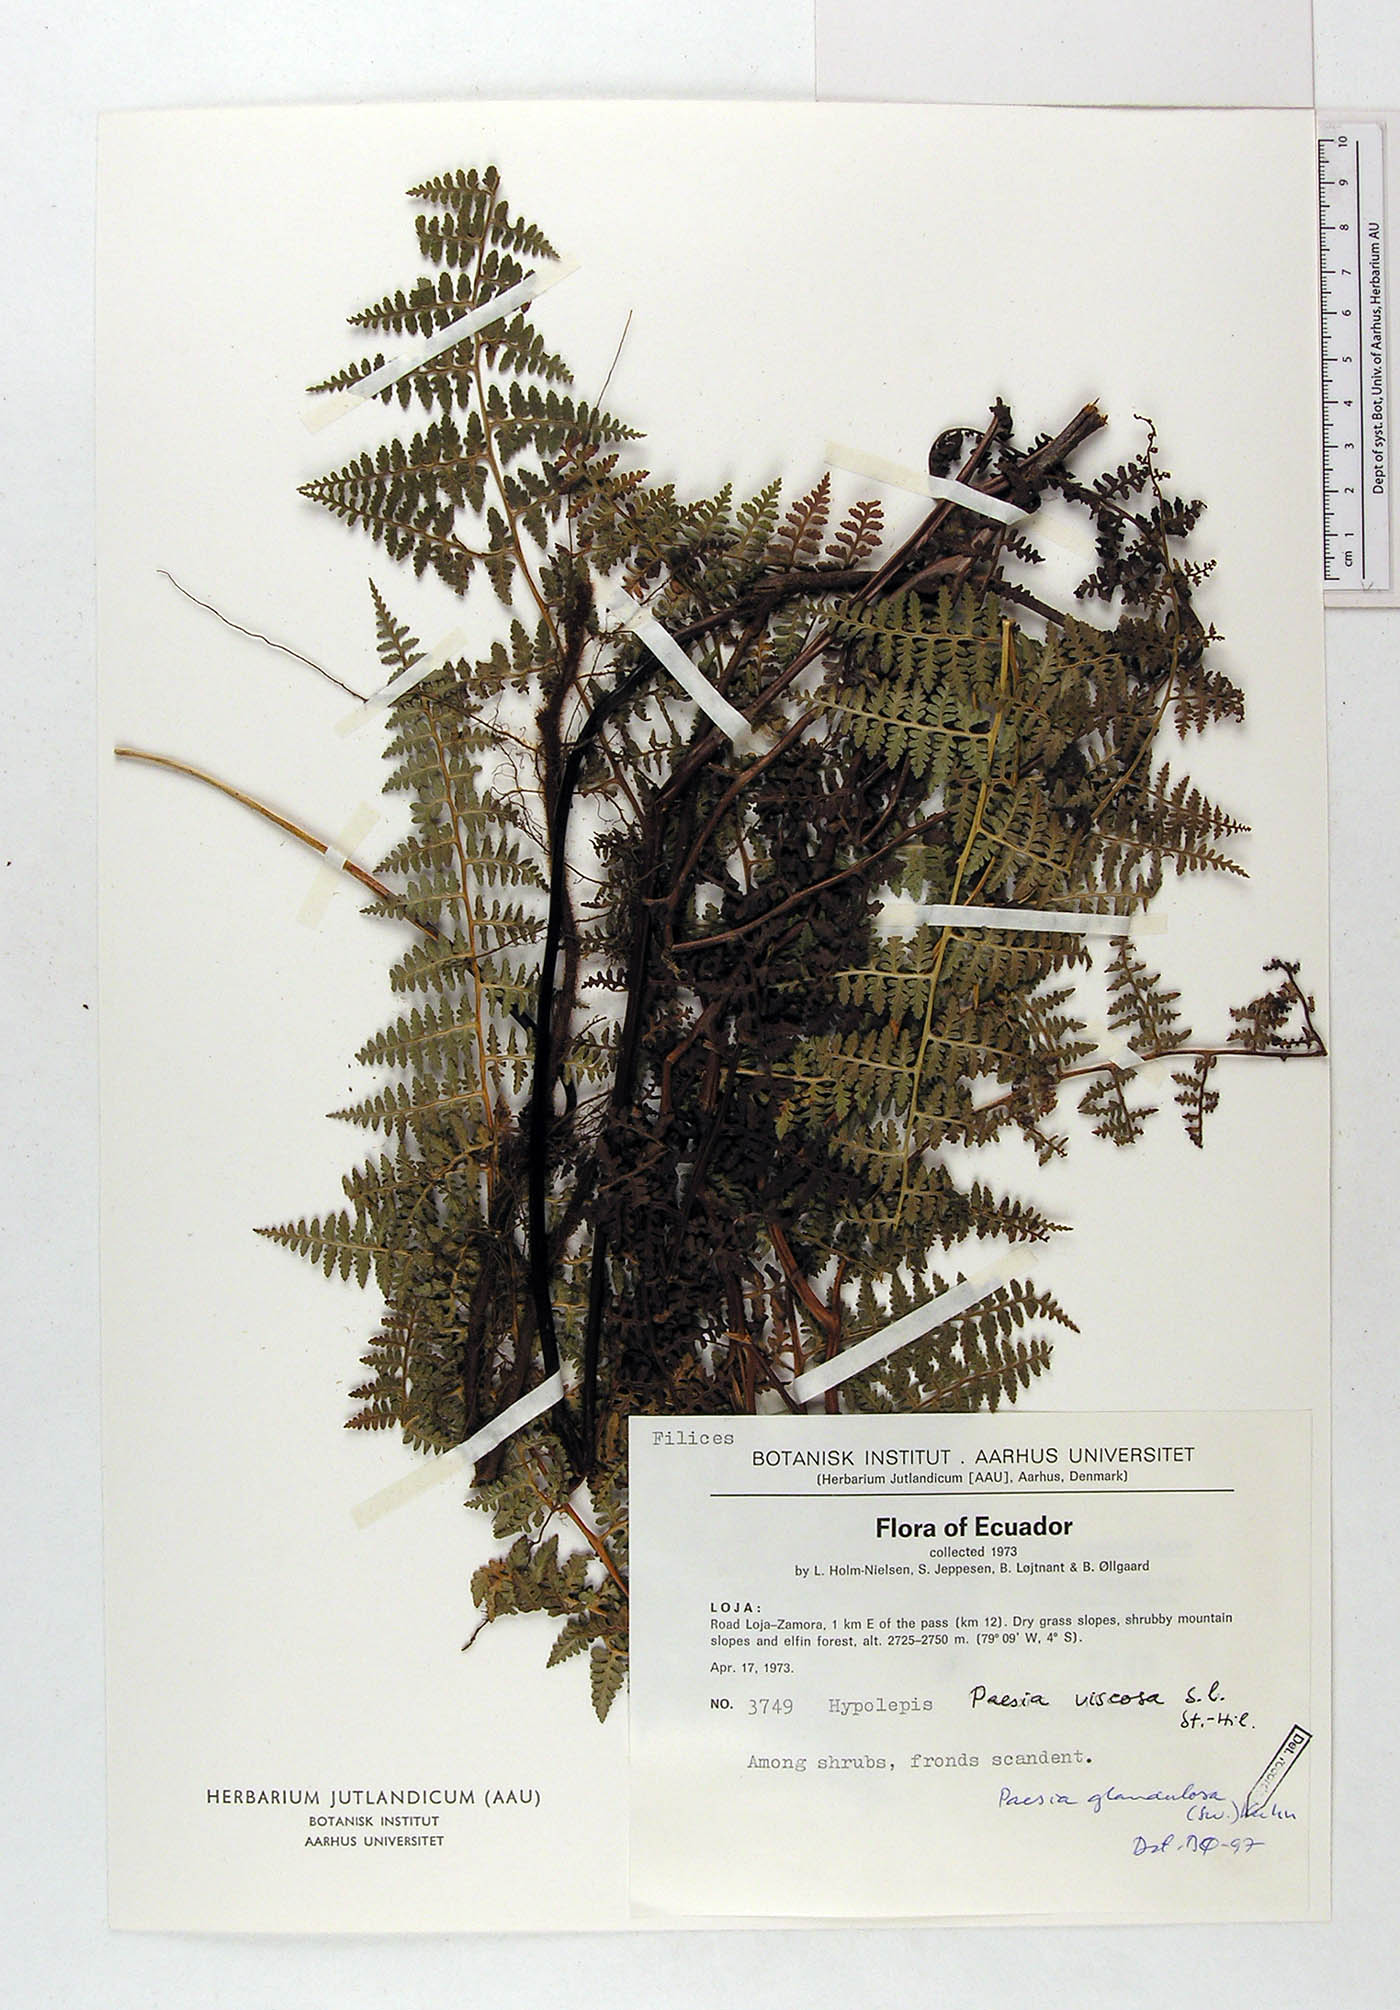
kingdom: Plantae
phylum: Tracheophyta
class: Polypodiopsida
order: Polypodiales
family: Dennstaedtiaceae
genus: Paesia
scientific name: Paesia glandulosa
